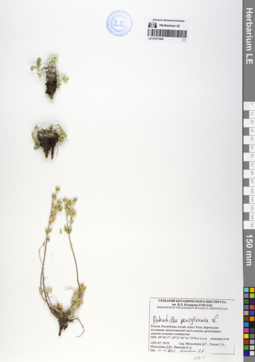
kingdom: Plantae
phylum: Tracheophyta
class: Magnoliopsida
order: Rosales
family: Rosaceae
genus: Potentilla
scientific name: Potentilla pensylvanica
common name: Pennsylvania cinquefoil
